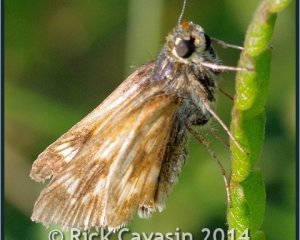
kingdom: Animalia
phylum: Arthropoda
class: Insecta
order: Lepidoptera
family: Hesperiidae
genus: Polites
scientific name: Polites
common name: Long Dash Skipper
